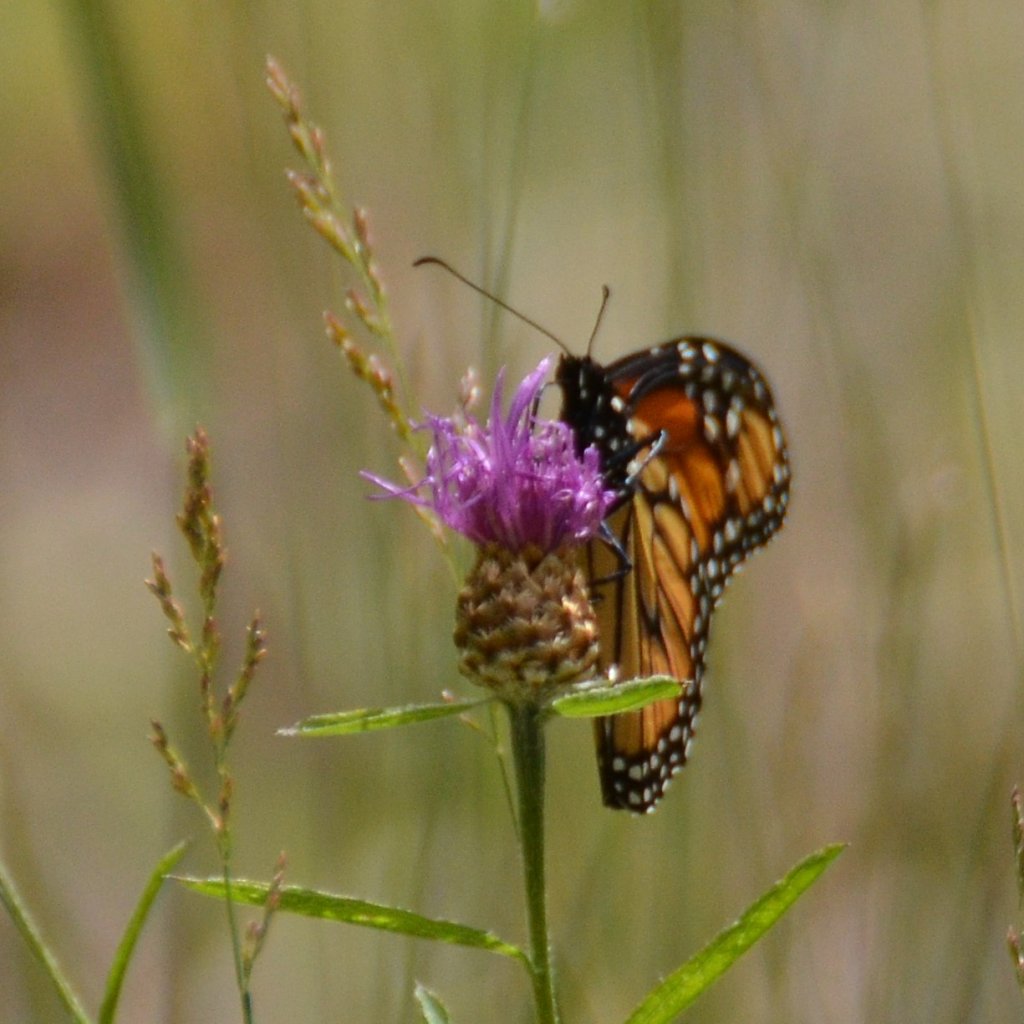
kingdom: Animalia
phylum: Arthropoda
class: Insecta
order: Lepidoptera
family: Nymphalidae
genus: Danaus
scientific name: Danaus plexippus
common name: Monarch
